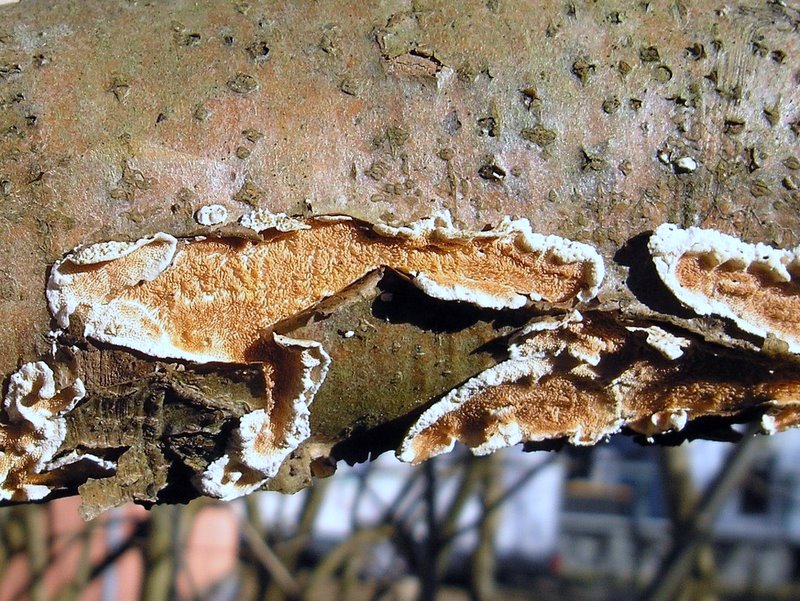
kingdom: Fungi
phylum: Basidiomycota
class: Agaricomycetes
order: Polyporales
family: Steccherinaceae
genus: Steccherinum
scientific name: Steccherinum ochraceum
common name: almindelig skønpig
